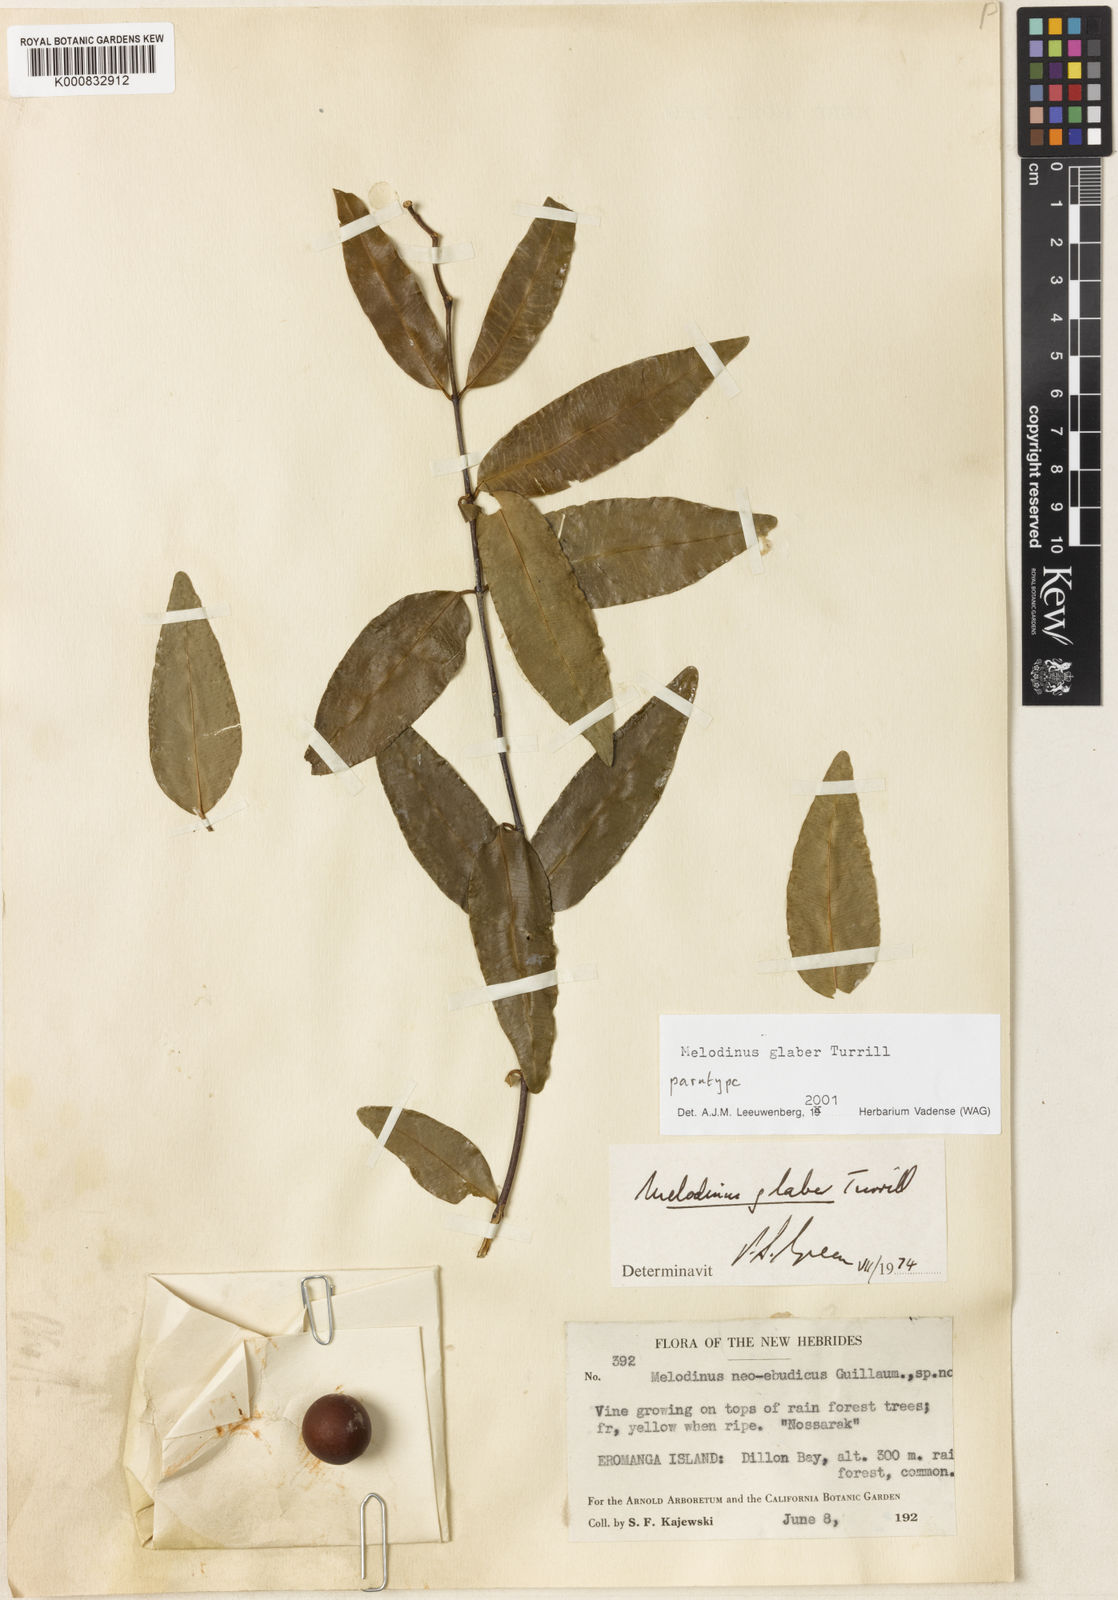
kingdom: Plantae
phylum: Tracheophyta
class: Magnoliopsida
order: Gentianales
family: Apocynaceae
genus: Melodinus
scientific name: Melodinus glaber
